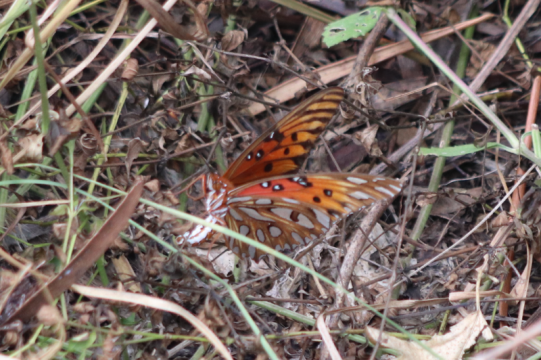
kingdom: Animalia
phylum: Arthropoda
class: Insecta
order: Lepidoptera
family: Nymphalidae
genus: Dione
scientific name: Dione vanillae
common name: Gulf Fritillary
